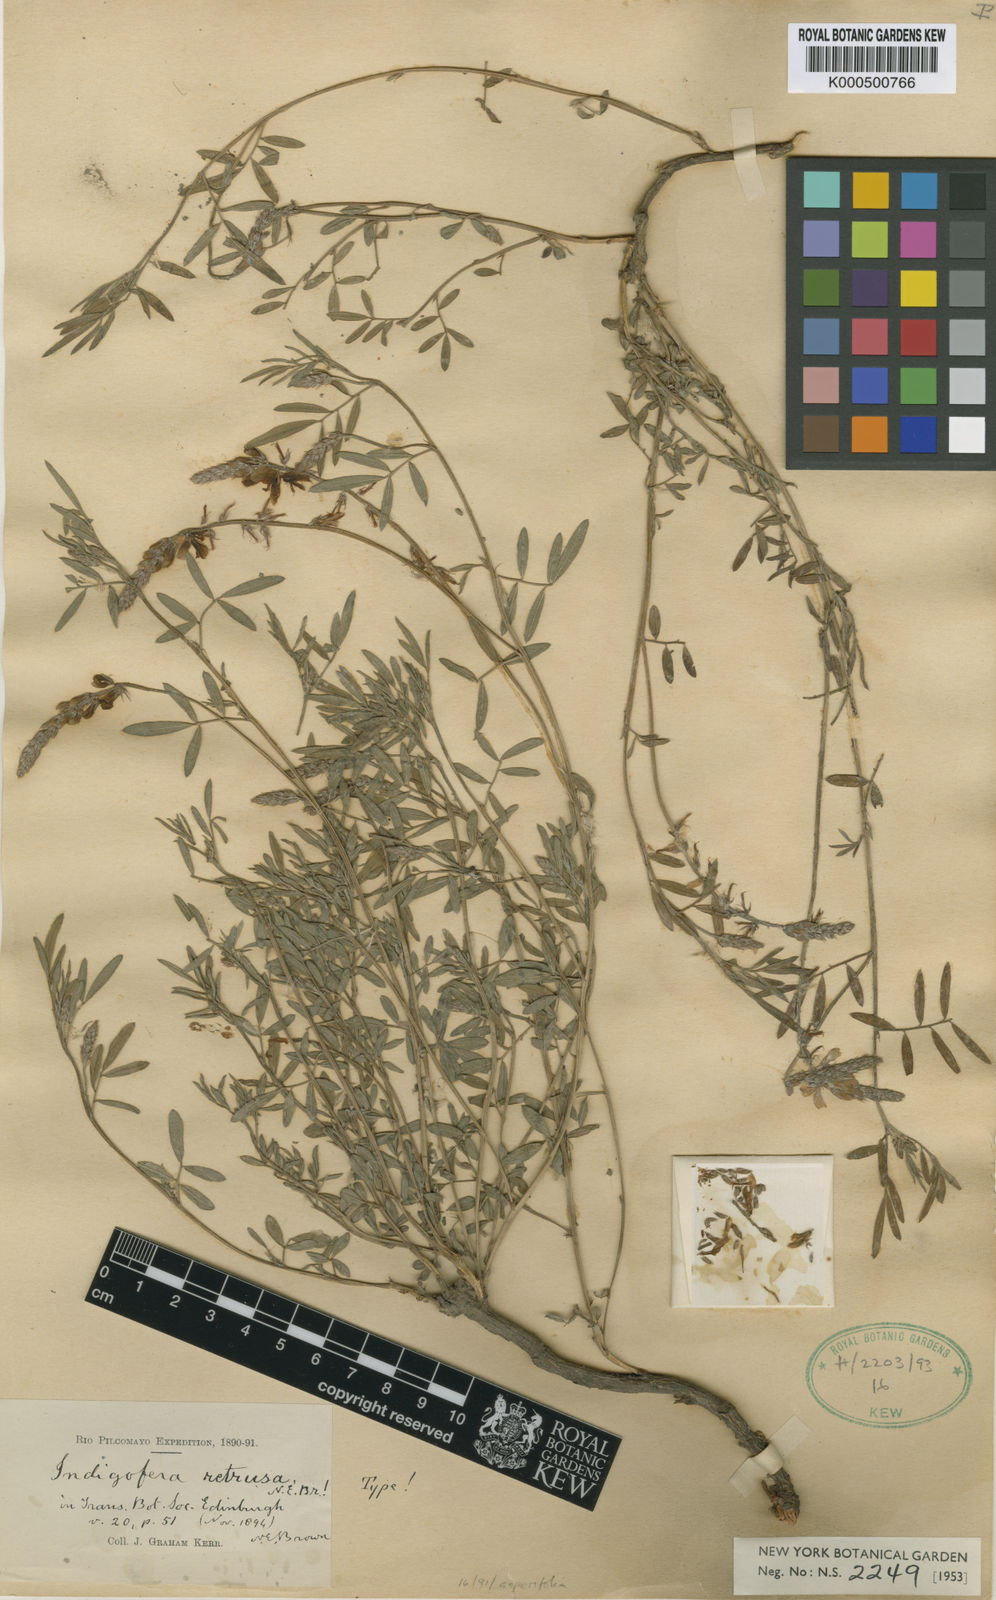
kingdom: Plantae
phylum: Tracheophyta
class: Magnoliopsida
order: Fabales
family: Fabaceae
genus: Indigofera
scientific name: Indigofera asperifolia
